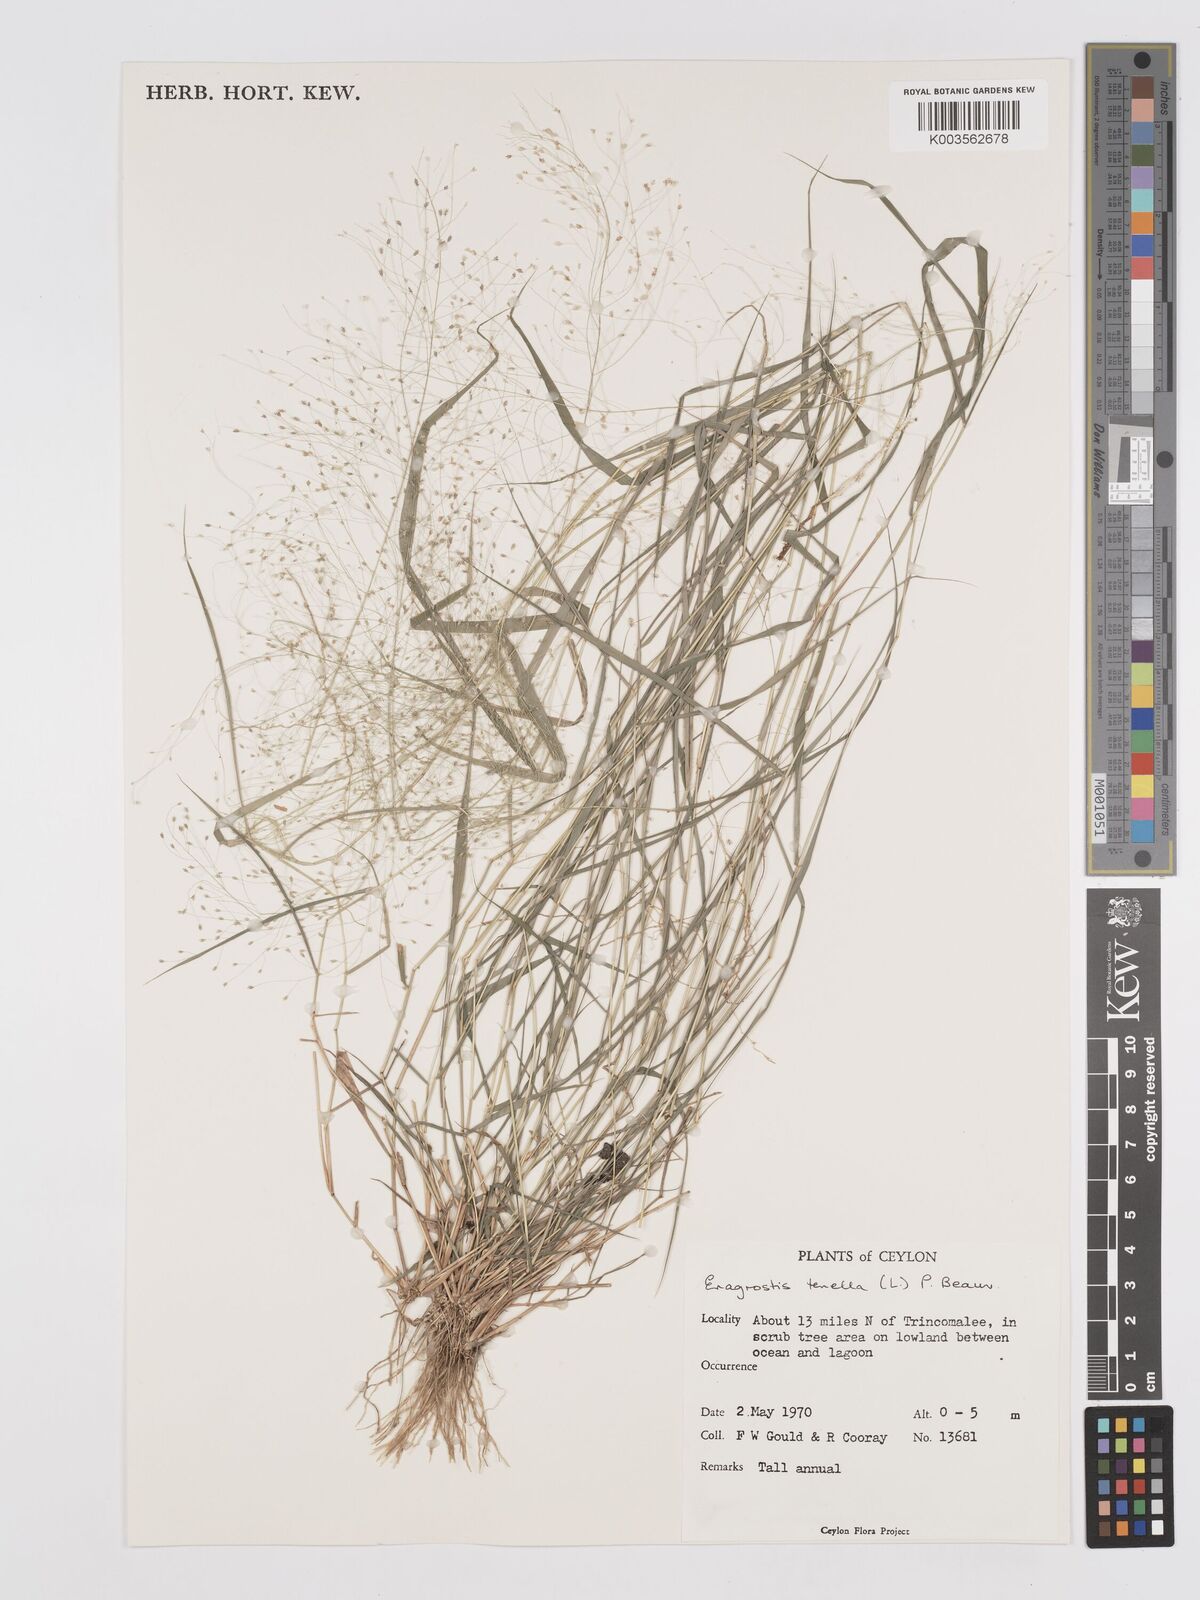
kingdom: Plantae
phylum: Tracheophyta
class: Liliopsida
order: Poales
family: Poaceae
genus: Eragrostis
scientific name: Eragrostis tenella
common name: Japanese lovegrass
